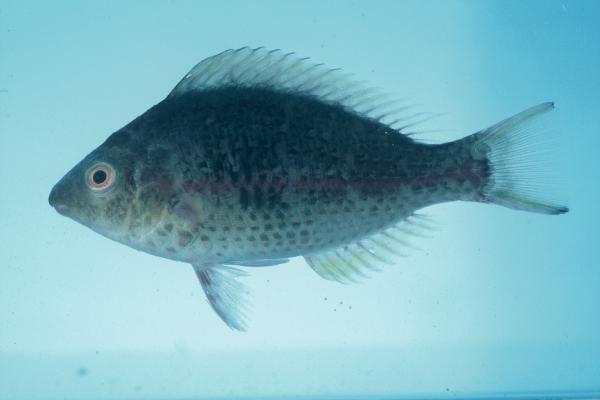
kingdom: Animalia
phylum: Chordata
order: Perciformes
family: Scaridae
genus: Scarus
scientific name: Scarus
